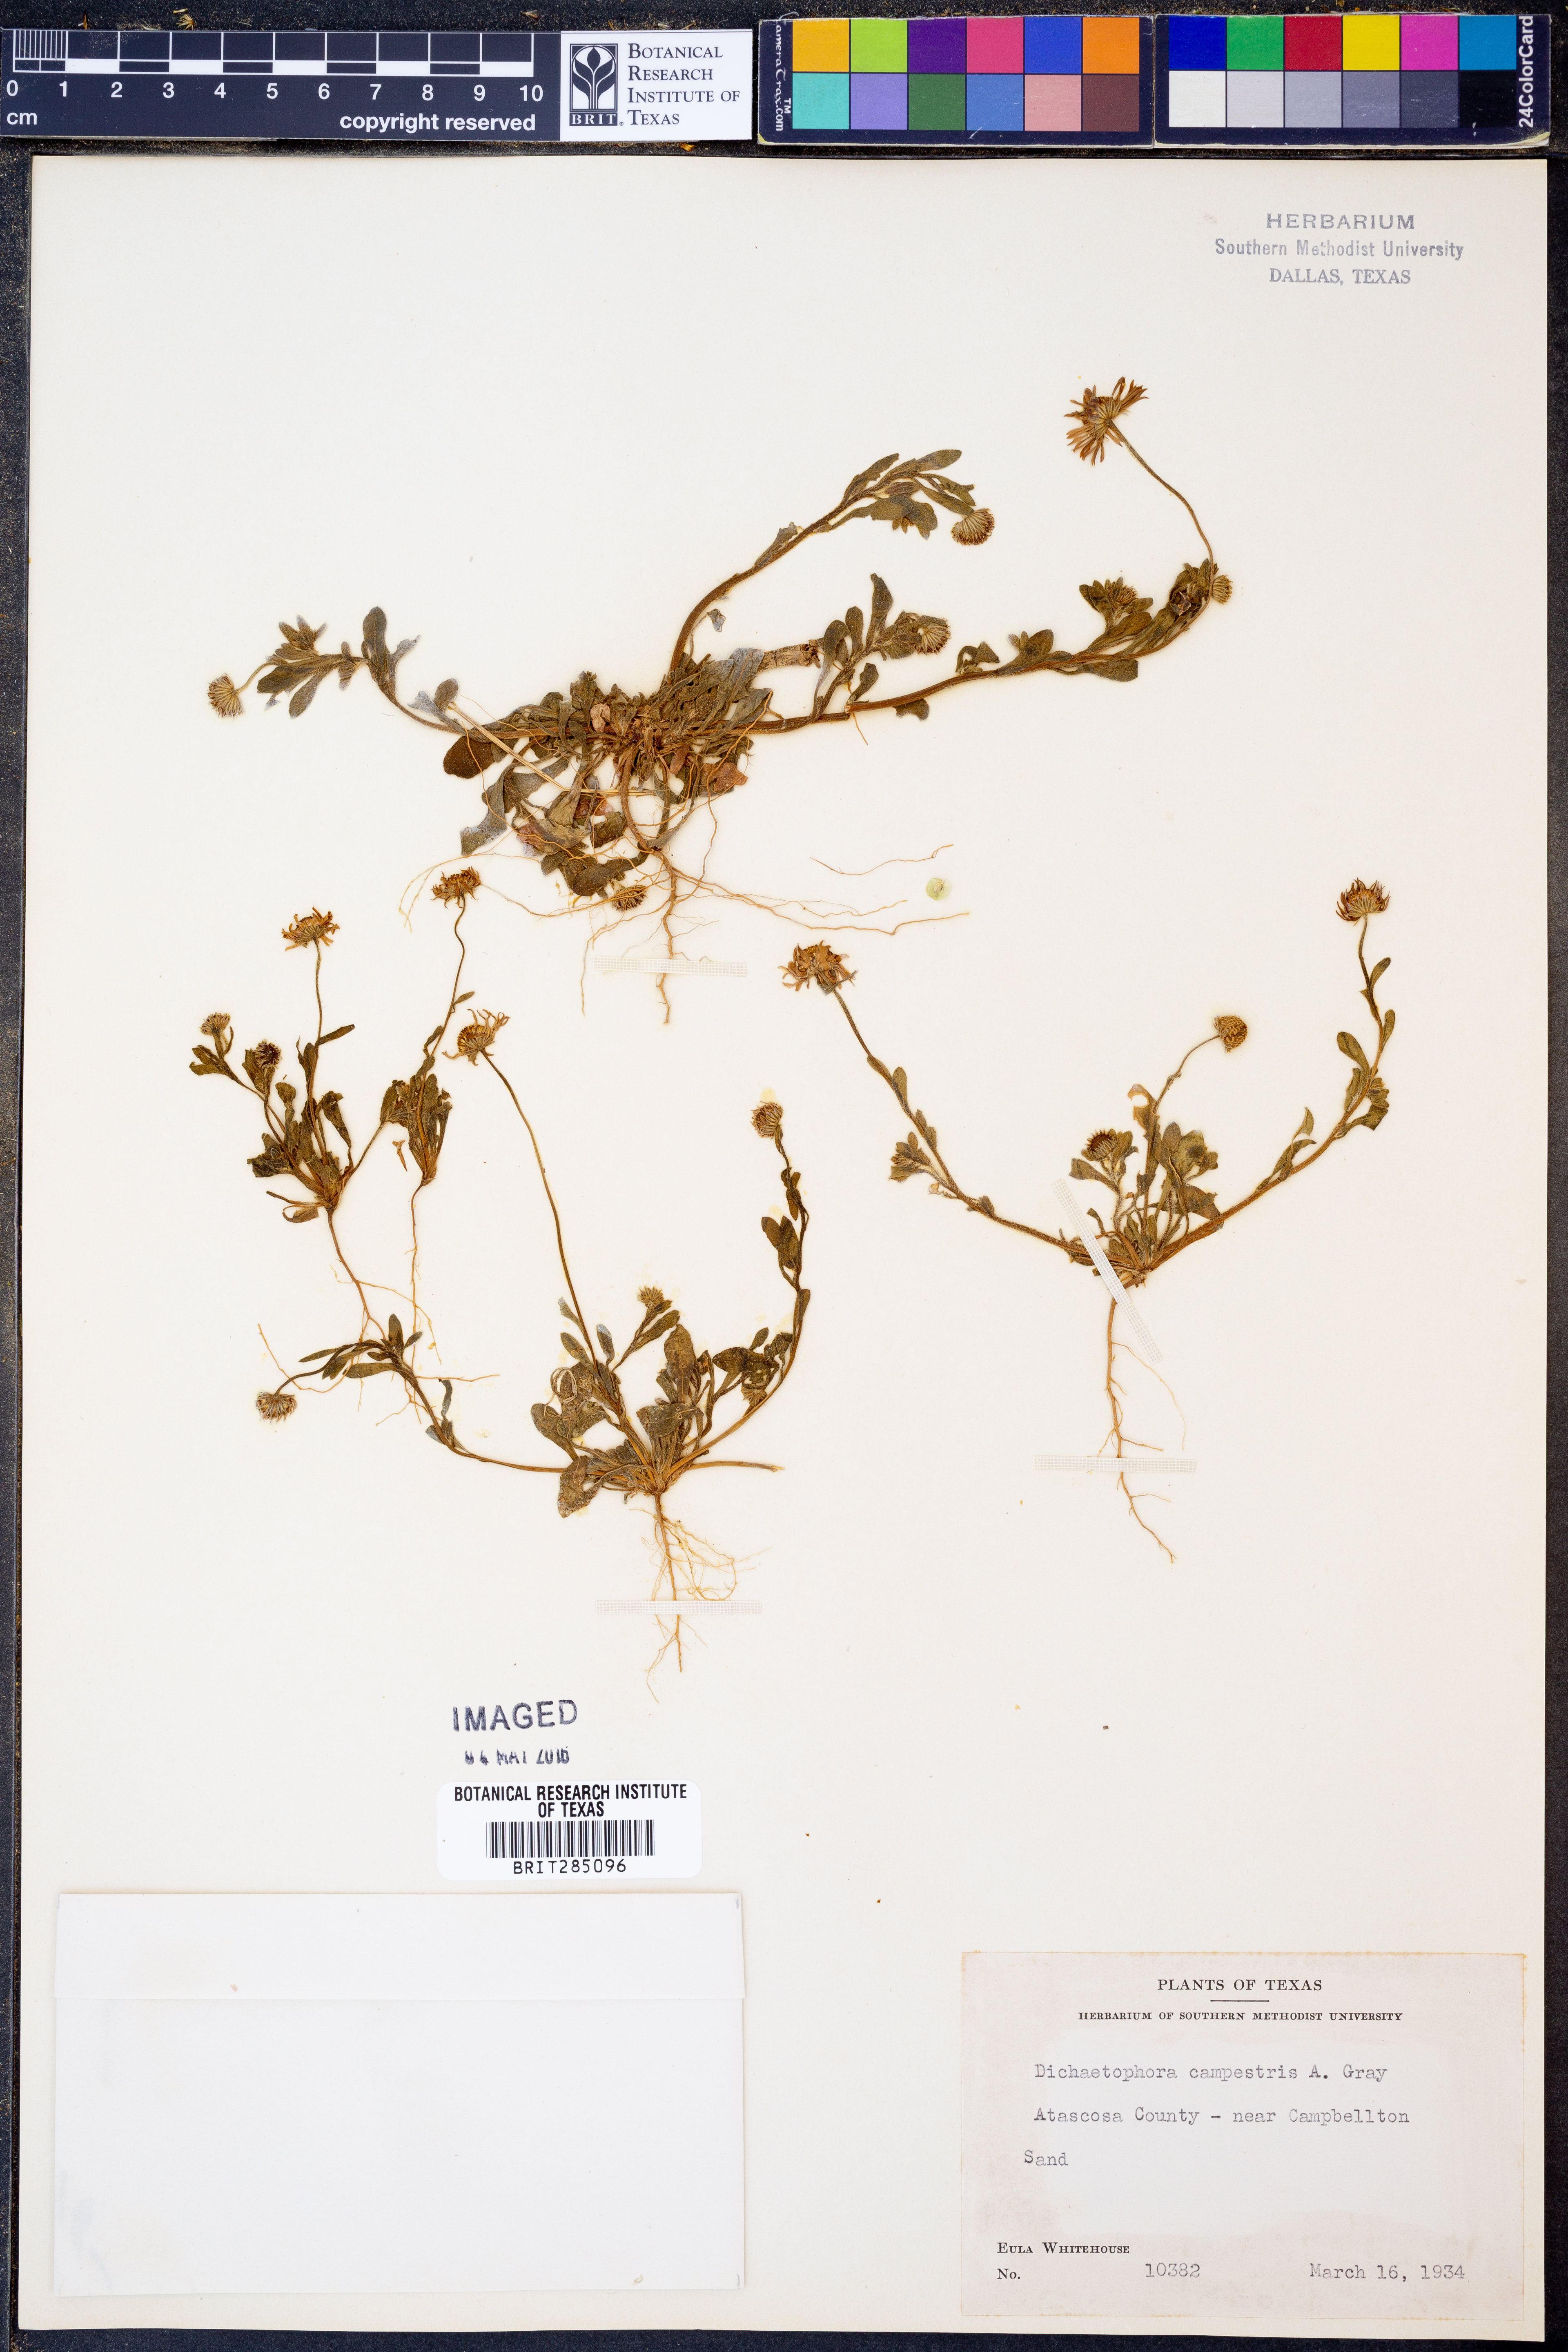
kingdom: Plantae
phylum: Tracheophyta
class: Magnoliopsida
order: Asterales
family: Asteraceae
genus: Dichaetophora
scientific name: Dichaetophora campestris
